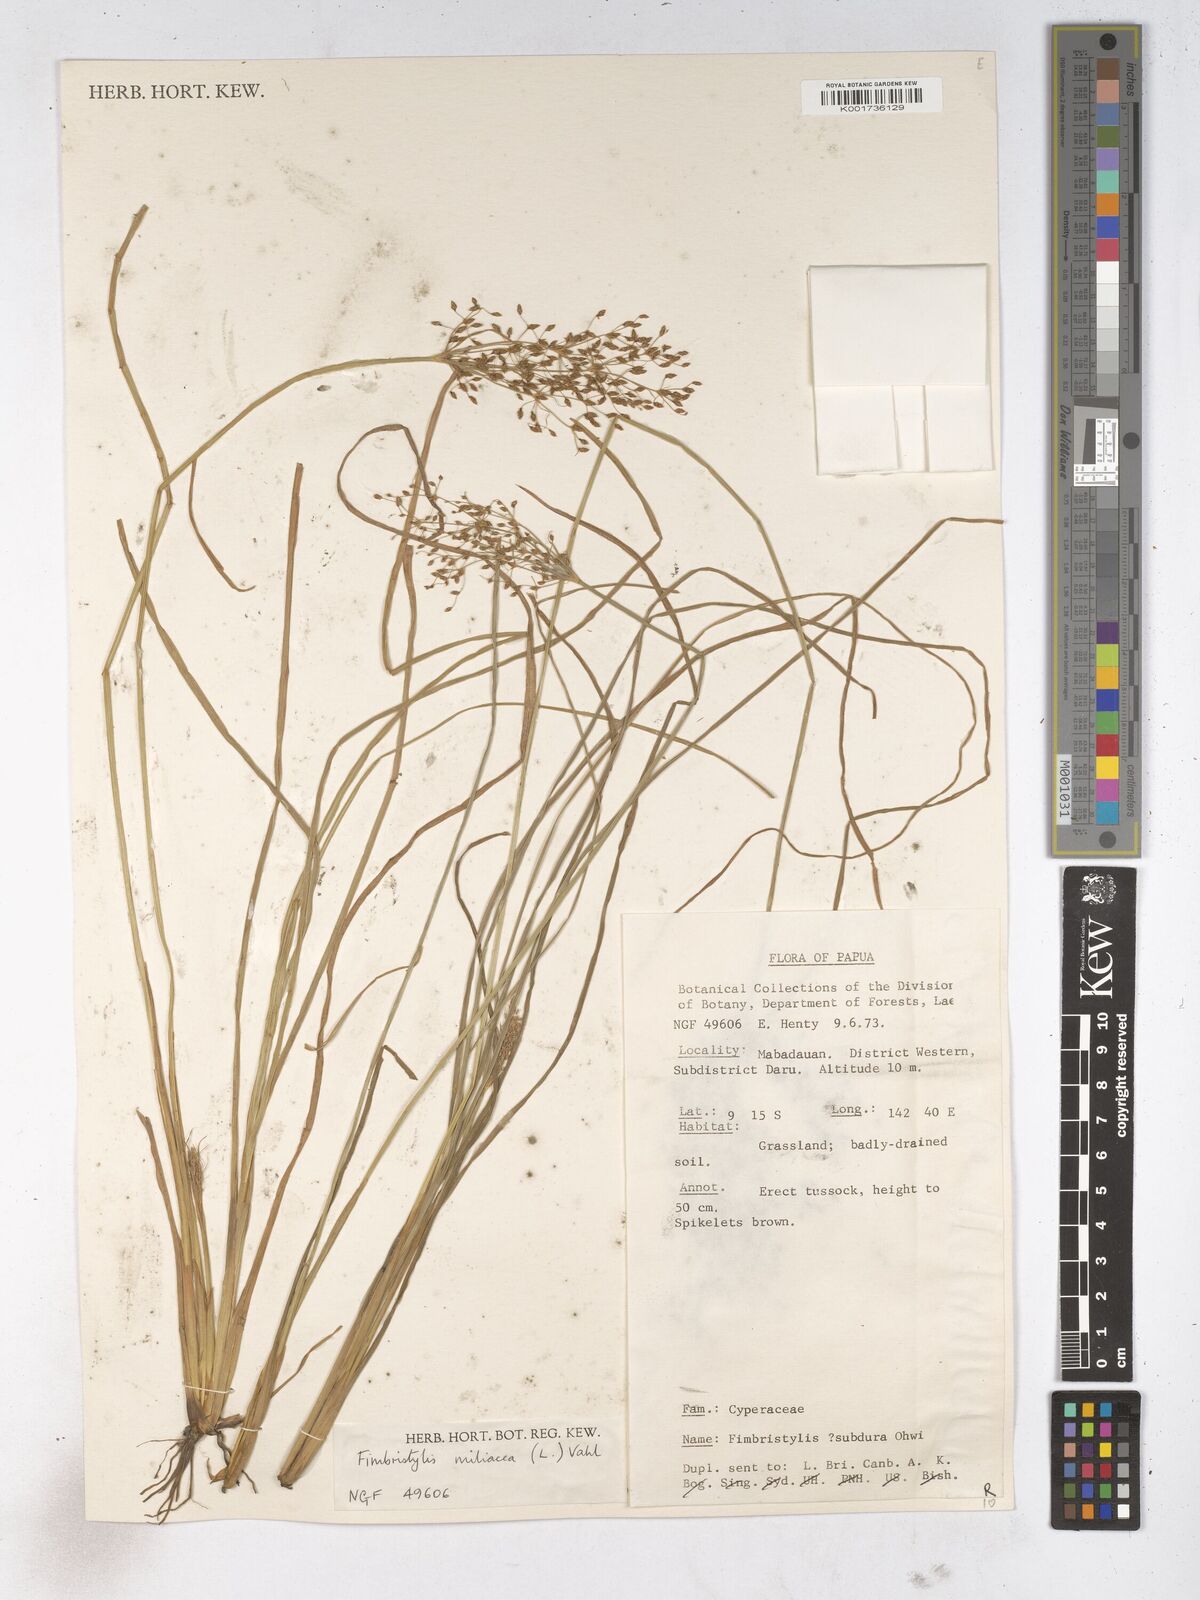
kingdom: Plantae
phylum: Tracheophyta
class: Liliopsida
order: Poales
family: Cyperaceae
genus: Fimbristylis
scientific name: Fimbristylis quinquangularis
